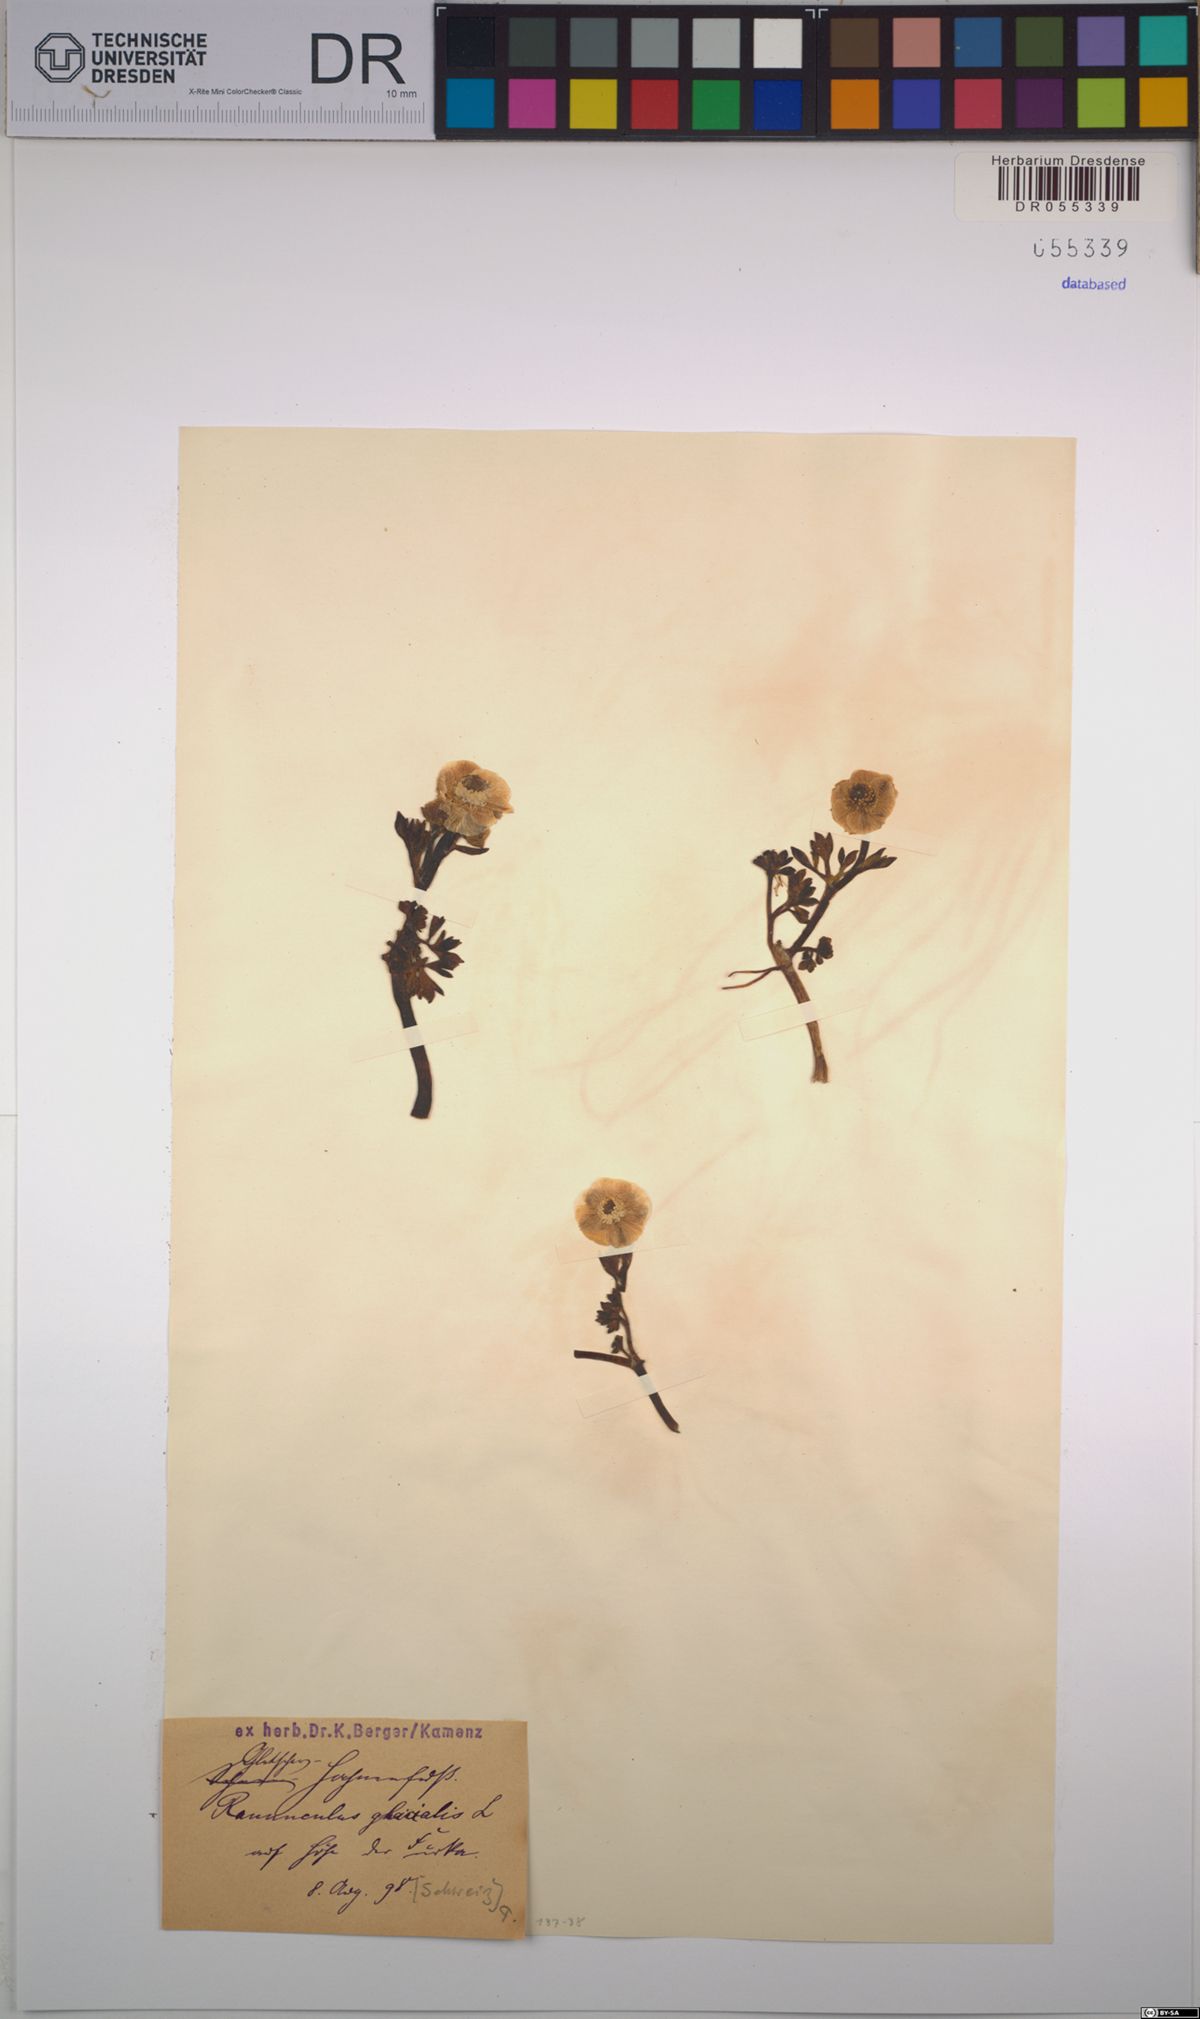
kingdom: Plantae
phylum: Tracheophyta
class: Magnoliopsida
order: Ranunculales
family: Ranunculaceae
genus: Ranunculus
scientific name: Ranunculus glacialis
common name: Glacier buttercup
